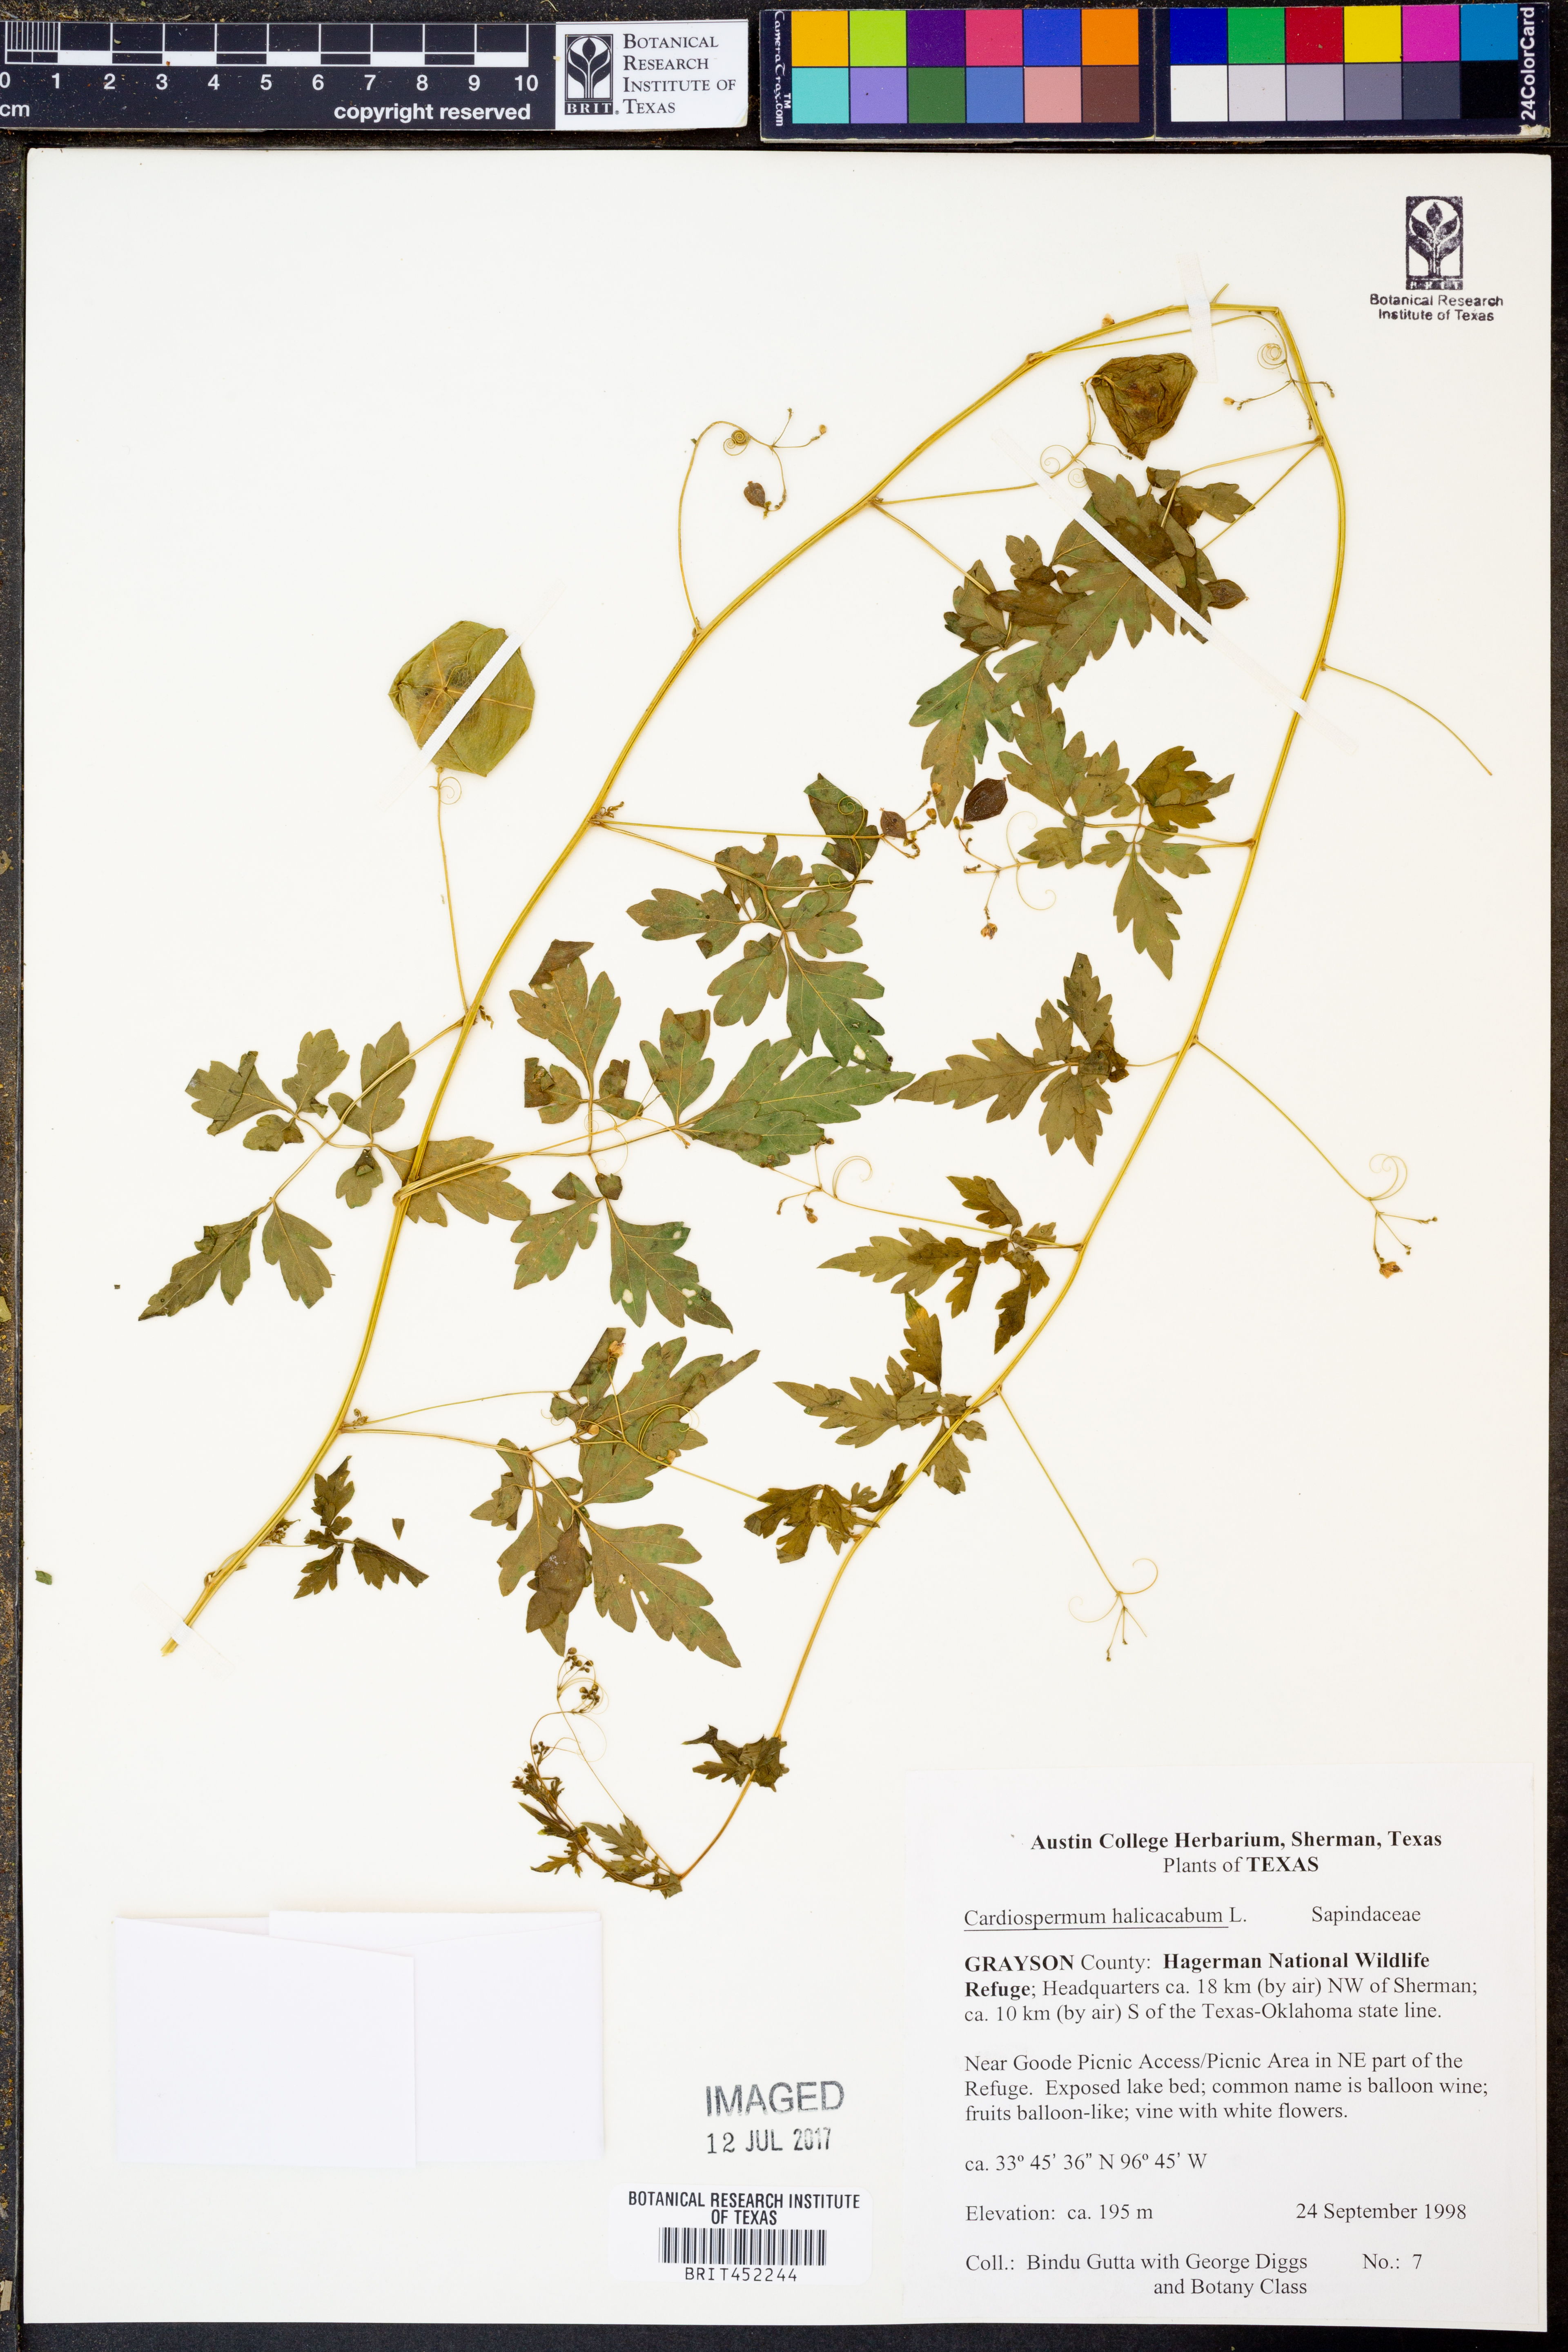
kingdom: Plantae
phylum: Tracheophyta
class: Magnoliopsida
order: Sapindales
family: Sapindaceae
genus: Cardiospermum
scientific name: Cardiospermum halicacabum
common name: Balloon vine
